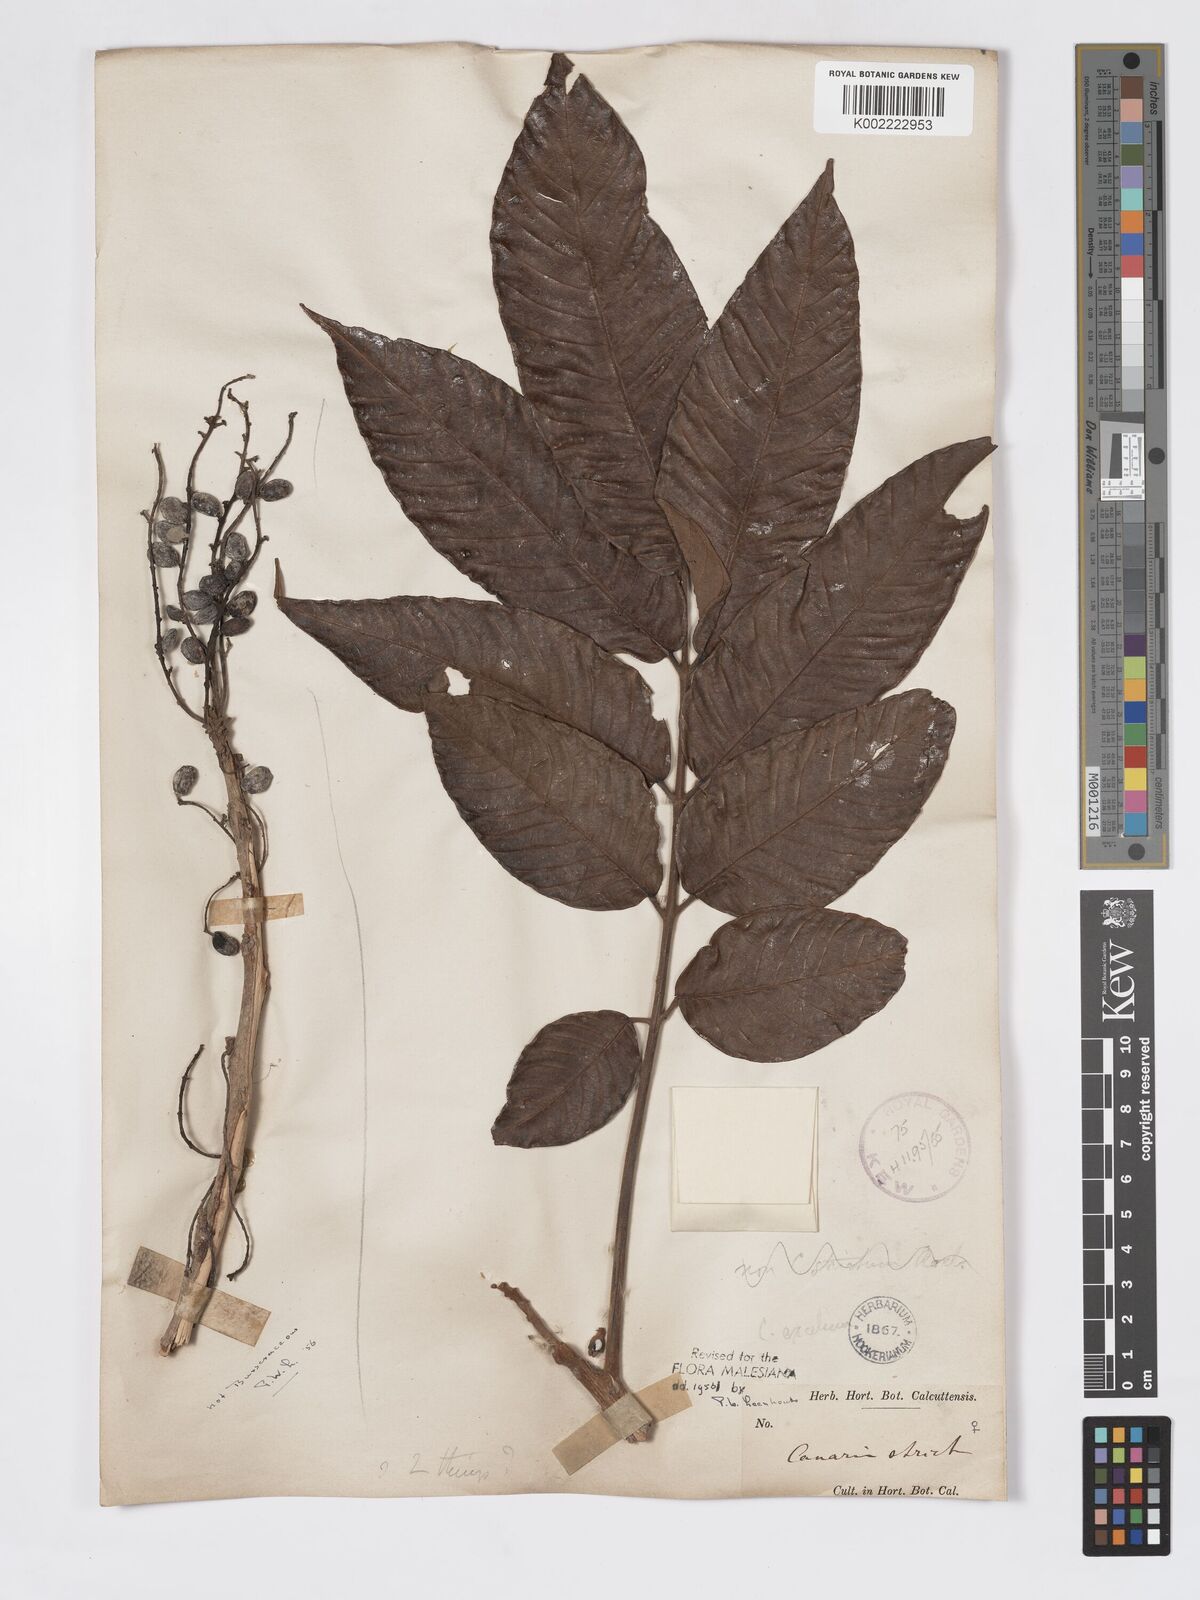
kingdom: Plantae
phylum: Tracheophyta
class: Magnoliopsida
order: Sapindales
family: Burseraceae
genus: Canarium
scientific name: Canarium strictum
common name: Indian white-mahogany
